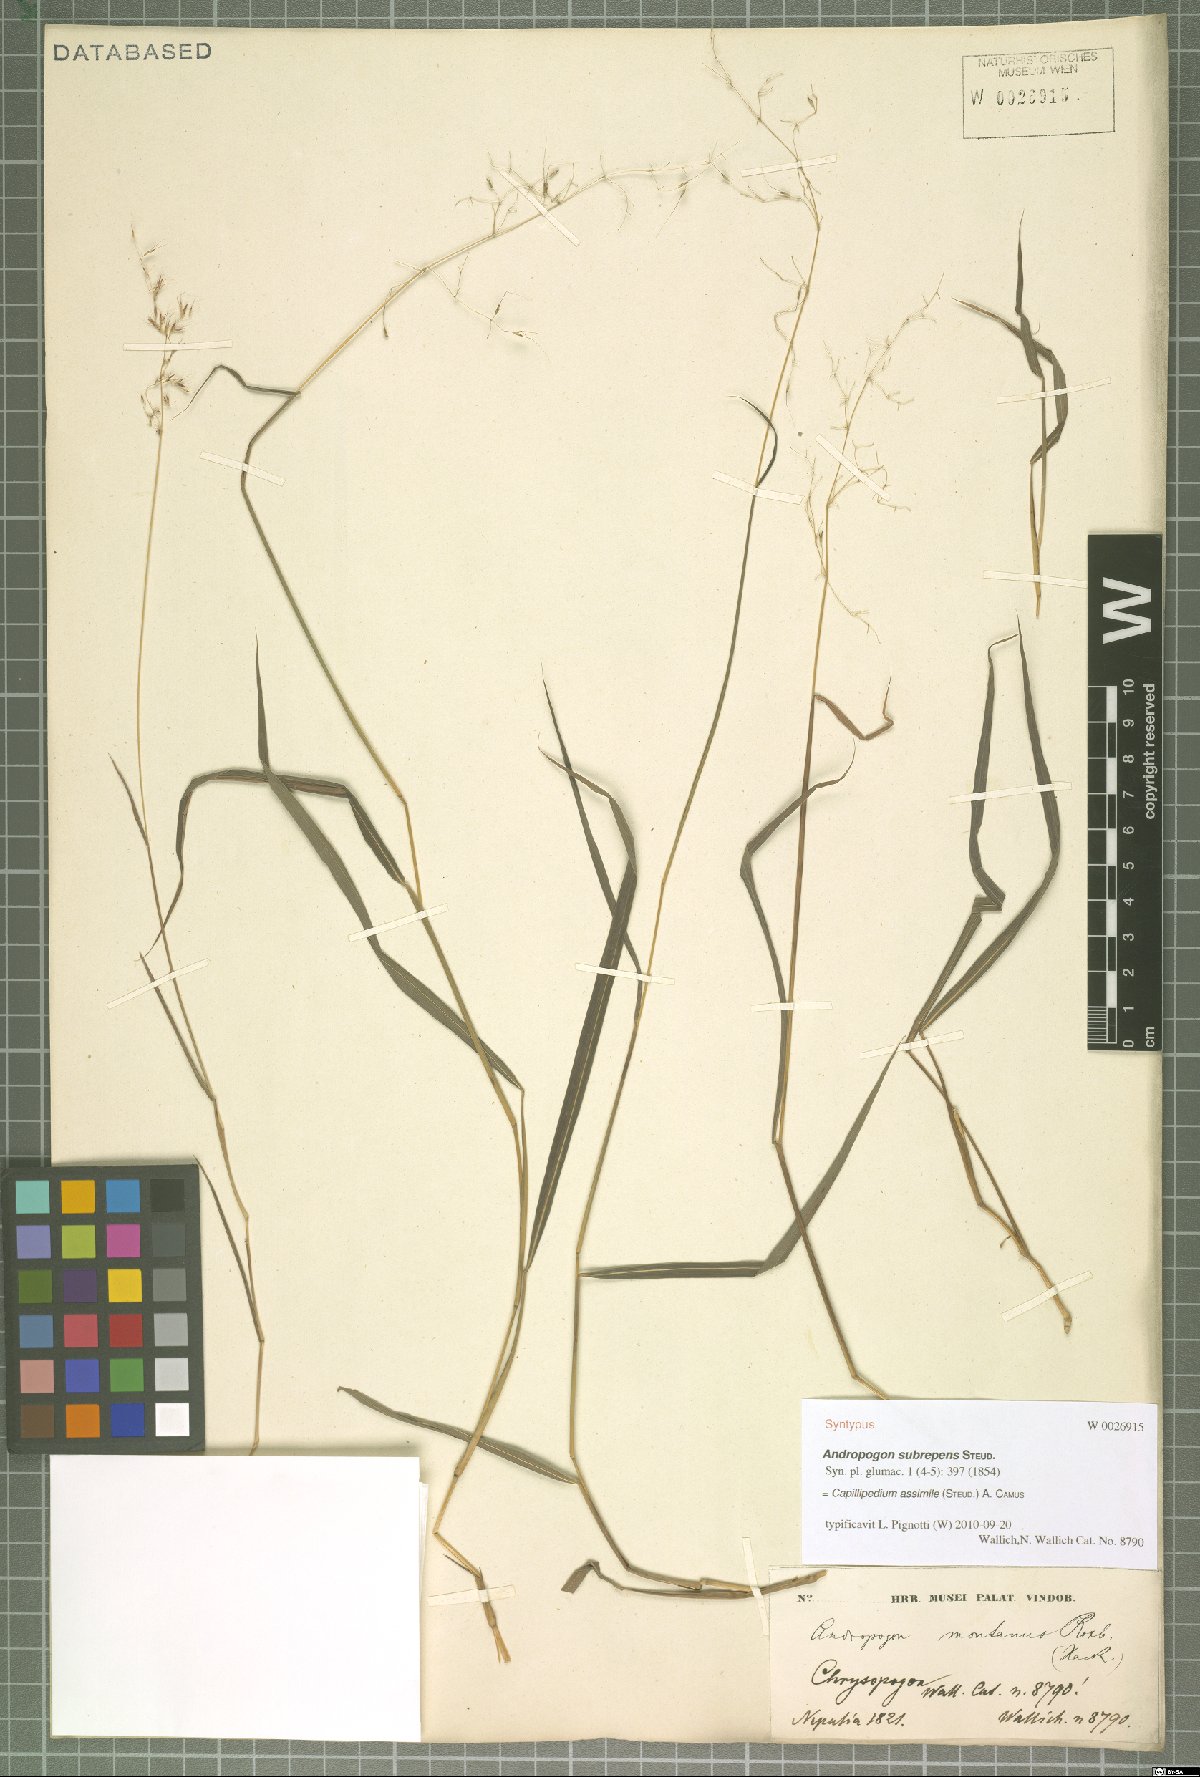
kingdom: Plantae
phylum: Tracheophyta
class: Liliopsida
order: Poales
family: Poaceae
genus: Capillipedium
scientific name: Capillipedium assimile
